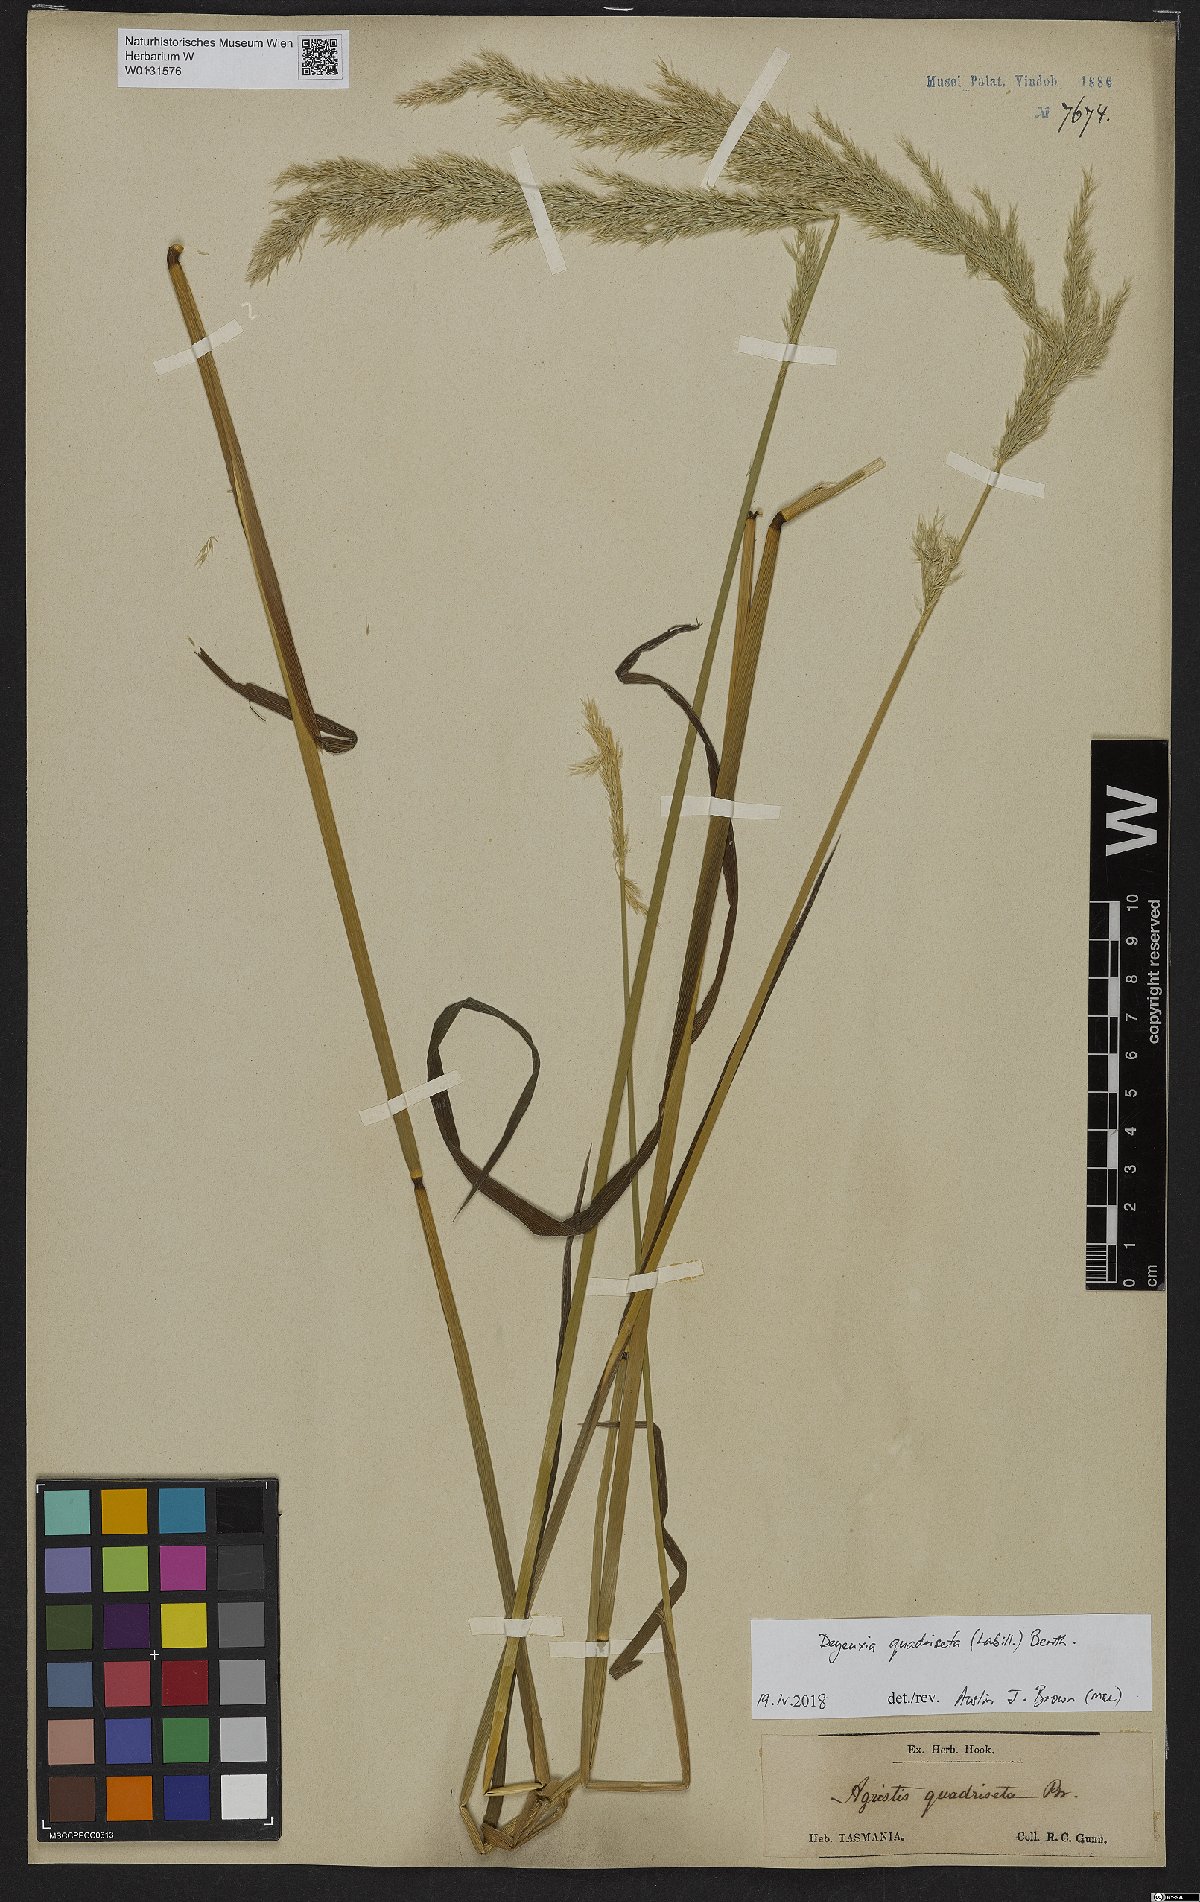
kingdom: Plantae
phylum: Tracheophyta
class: Liliopsida
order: Poales
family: Poaceae
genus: Calamagrostis
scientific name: Calamagrostis quadriseta
